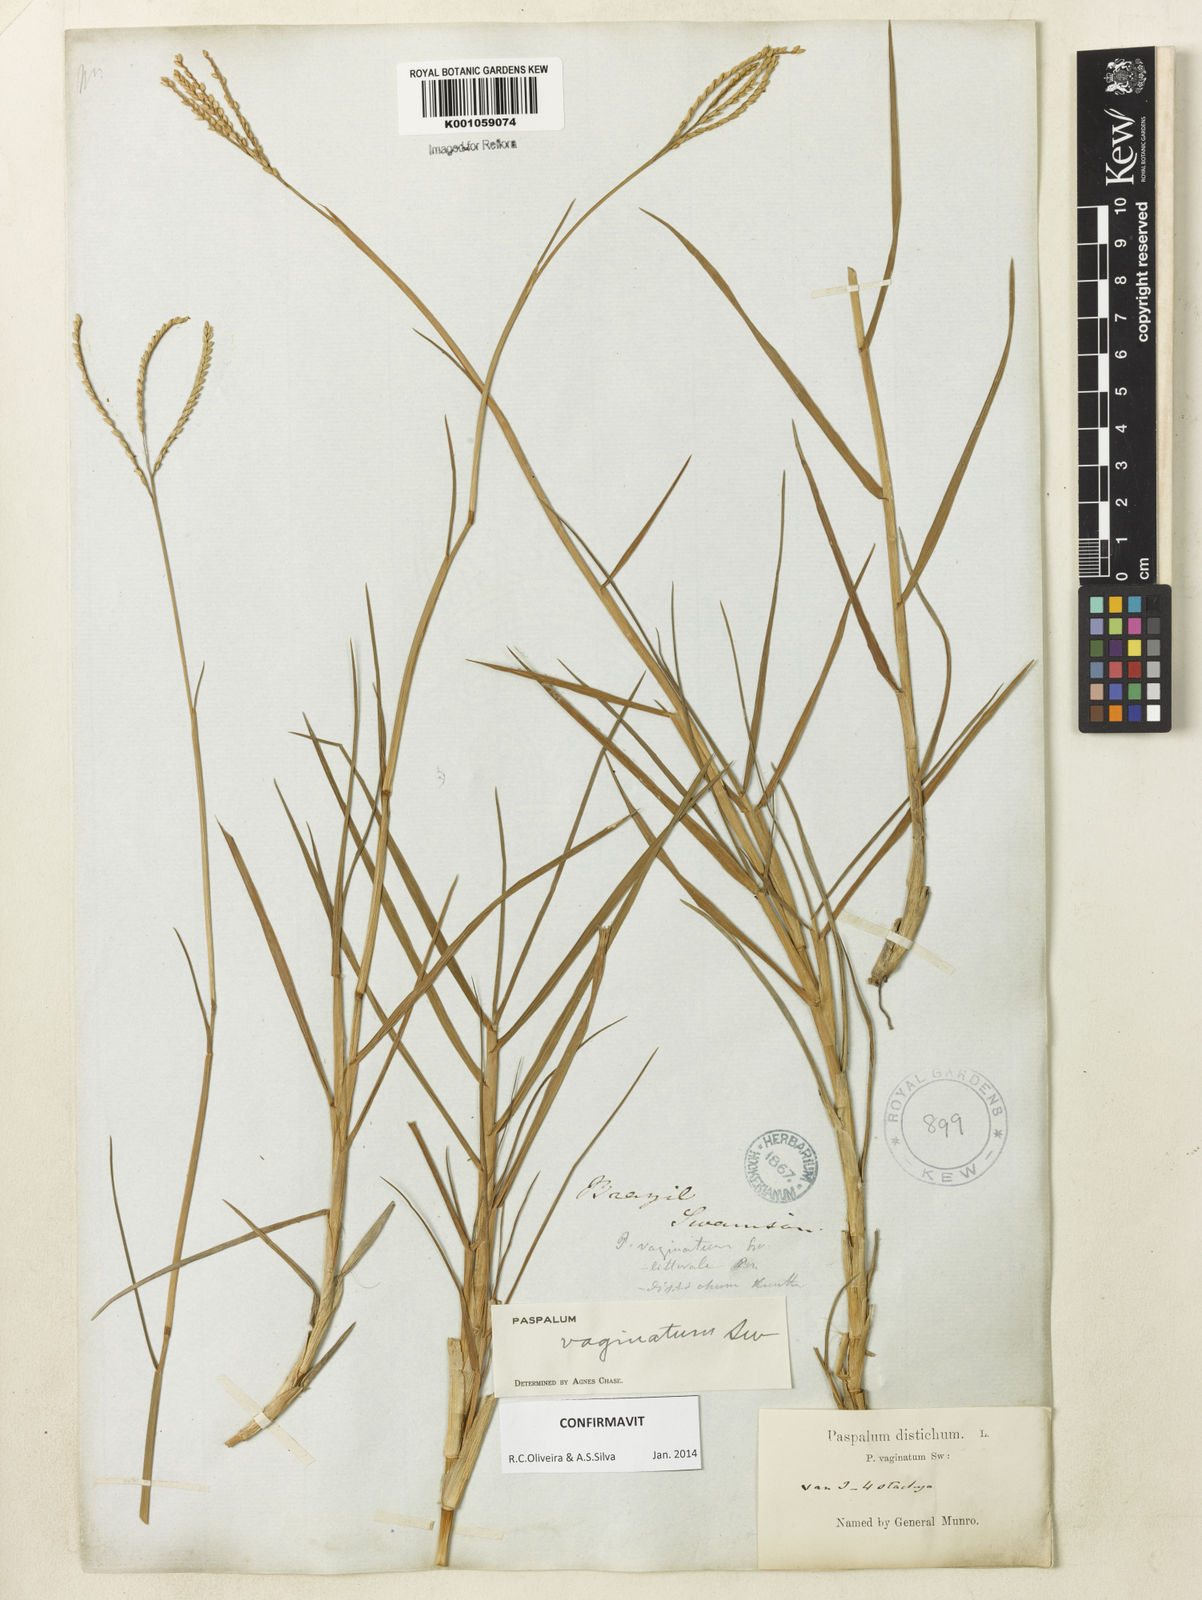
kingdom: Plantae
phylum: Tracheophyta
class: Liliopsida
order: Poales
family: Poaceae
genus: Paspalum
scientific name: Paspalum vaginatum
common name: Seashore paspalum
